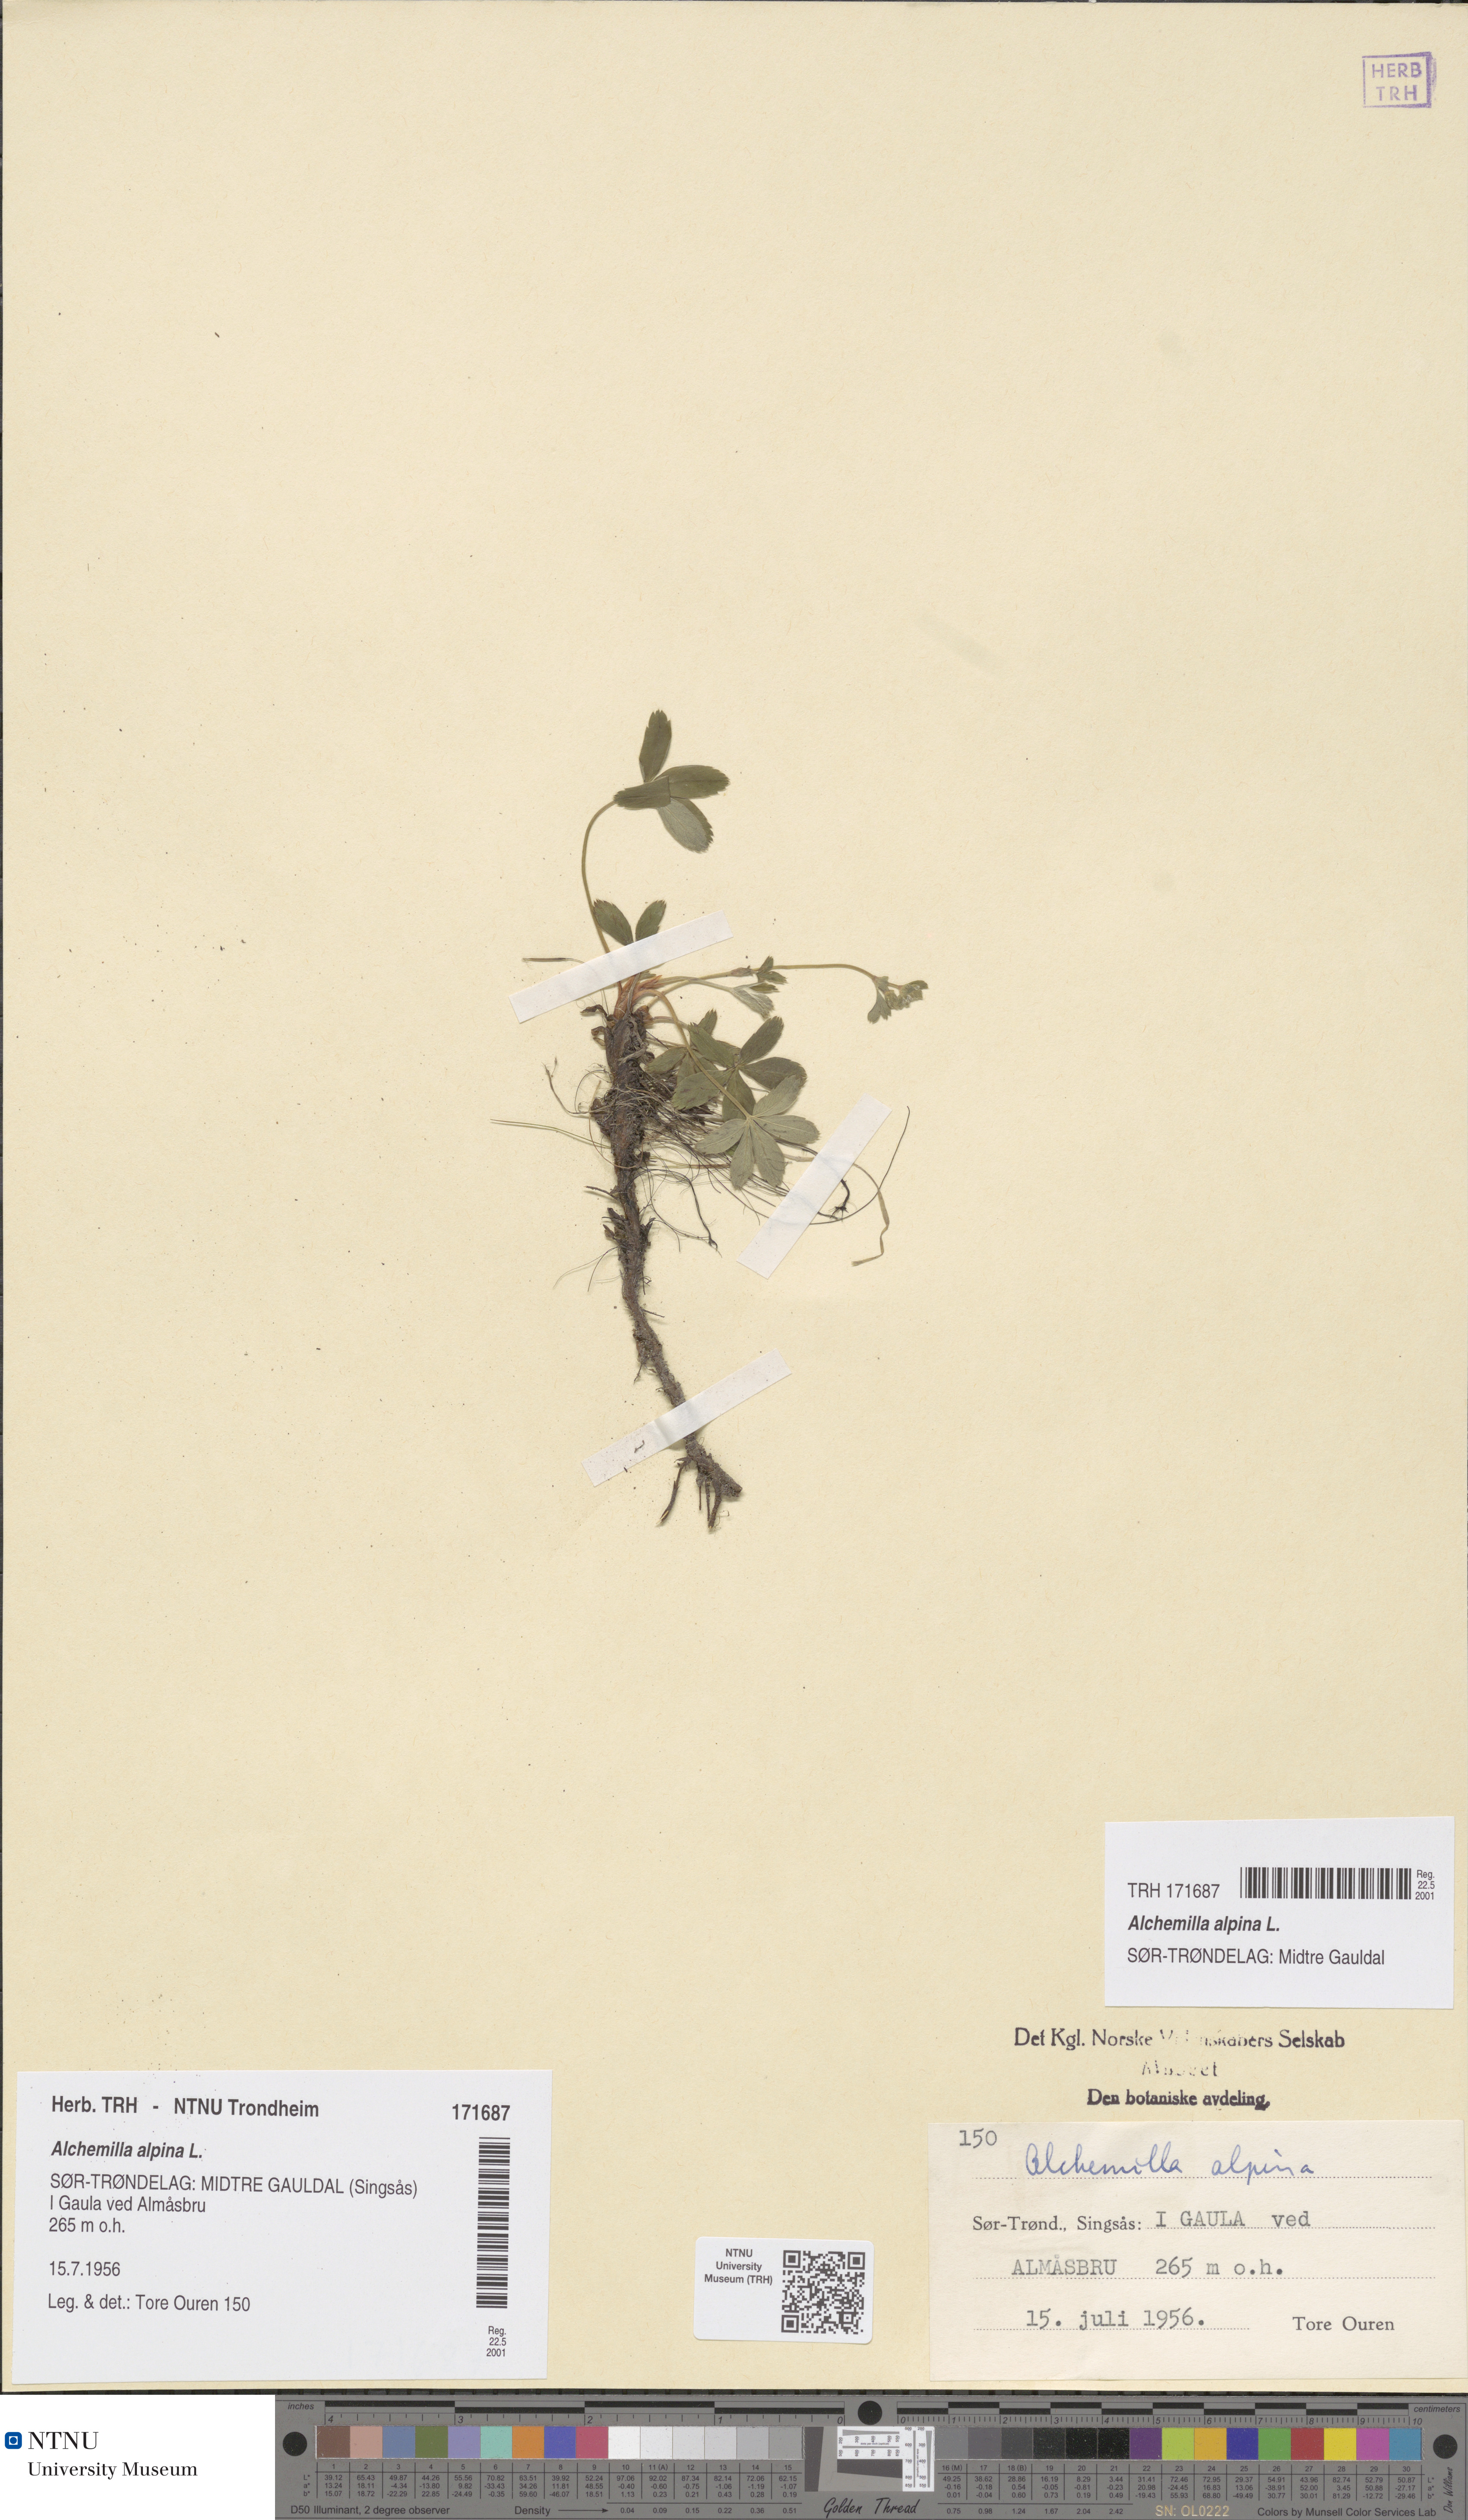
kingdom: Plantae
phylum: Tracheophyta
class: Magnoliopsida
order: Rosales
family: Rosaceae
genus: Alchemilla
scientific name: Alchemilla alpina
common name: Alpine lady's-mantle
